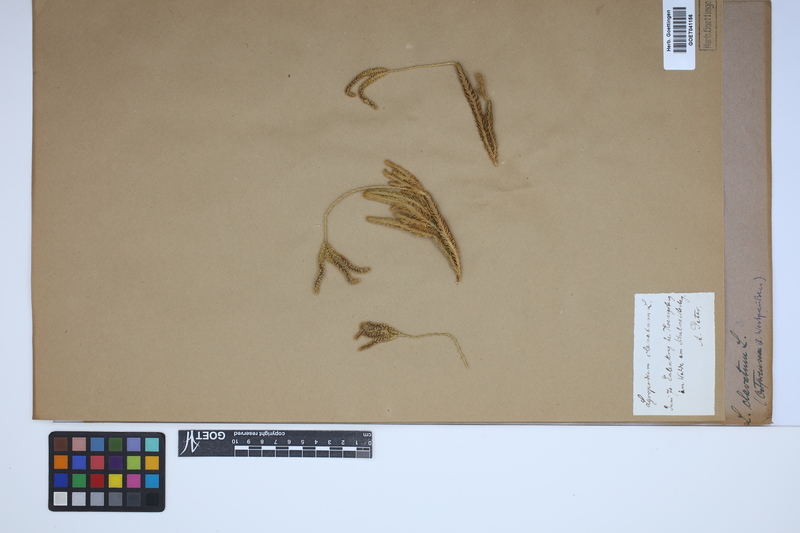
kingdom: Plantae
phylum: Tracheophyta
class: Lycopodiopsida
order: Lycopodiales
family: Lycopodiaceae
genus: Lycopodium
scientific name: Lycopodium clavatum
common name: Stag's-horn clubmoss
